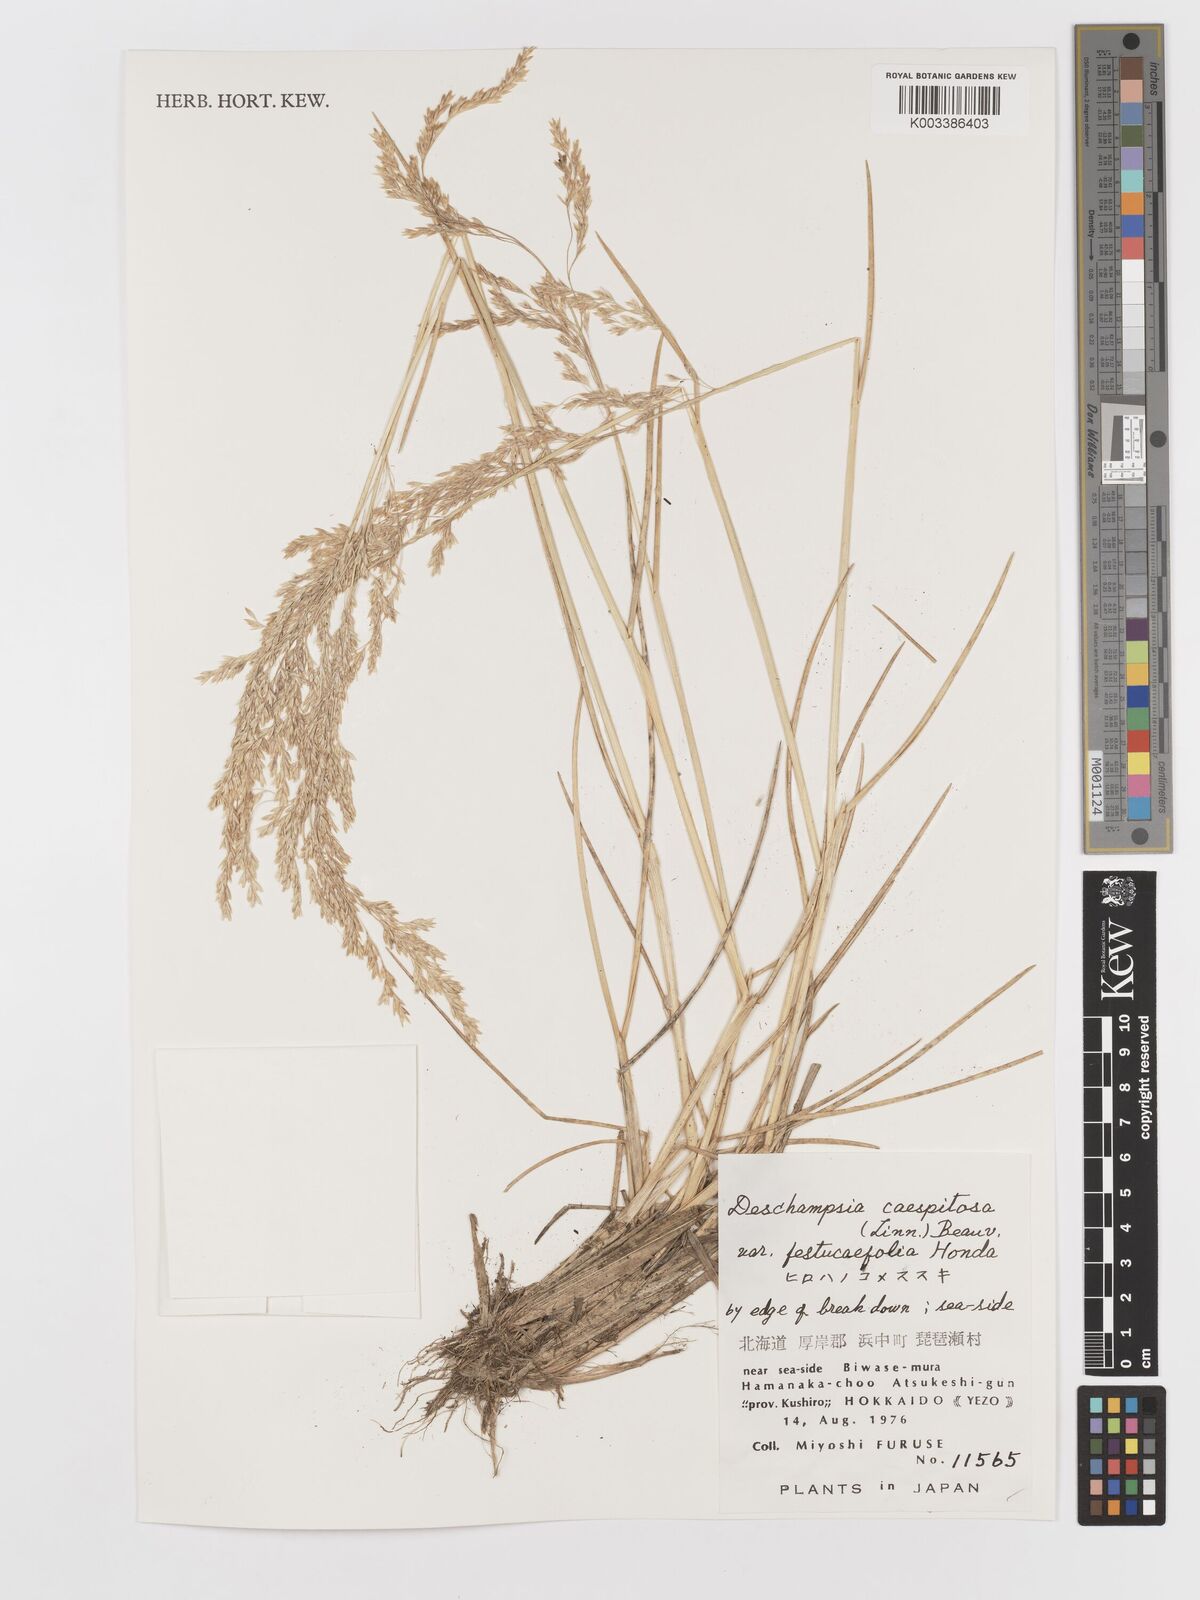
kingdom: Plantae
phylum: Tracheophyta
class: Liliopsida
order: Poales
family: Poaceae
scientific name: Poaceae
